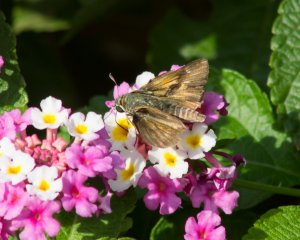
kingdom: Animalia
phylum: Arthropoda
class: Insecta
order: Lepidoptera
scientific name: Lepidoptera
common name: Butterflies
